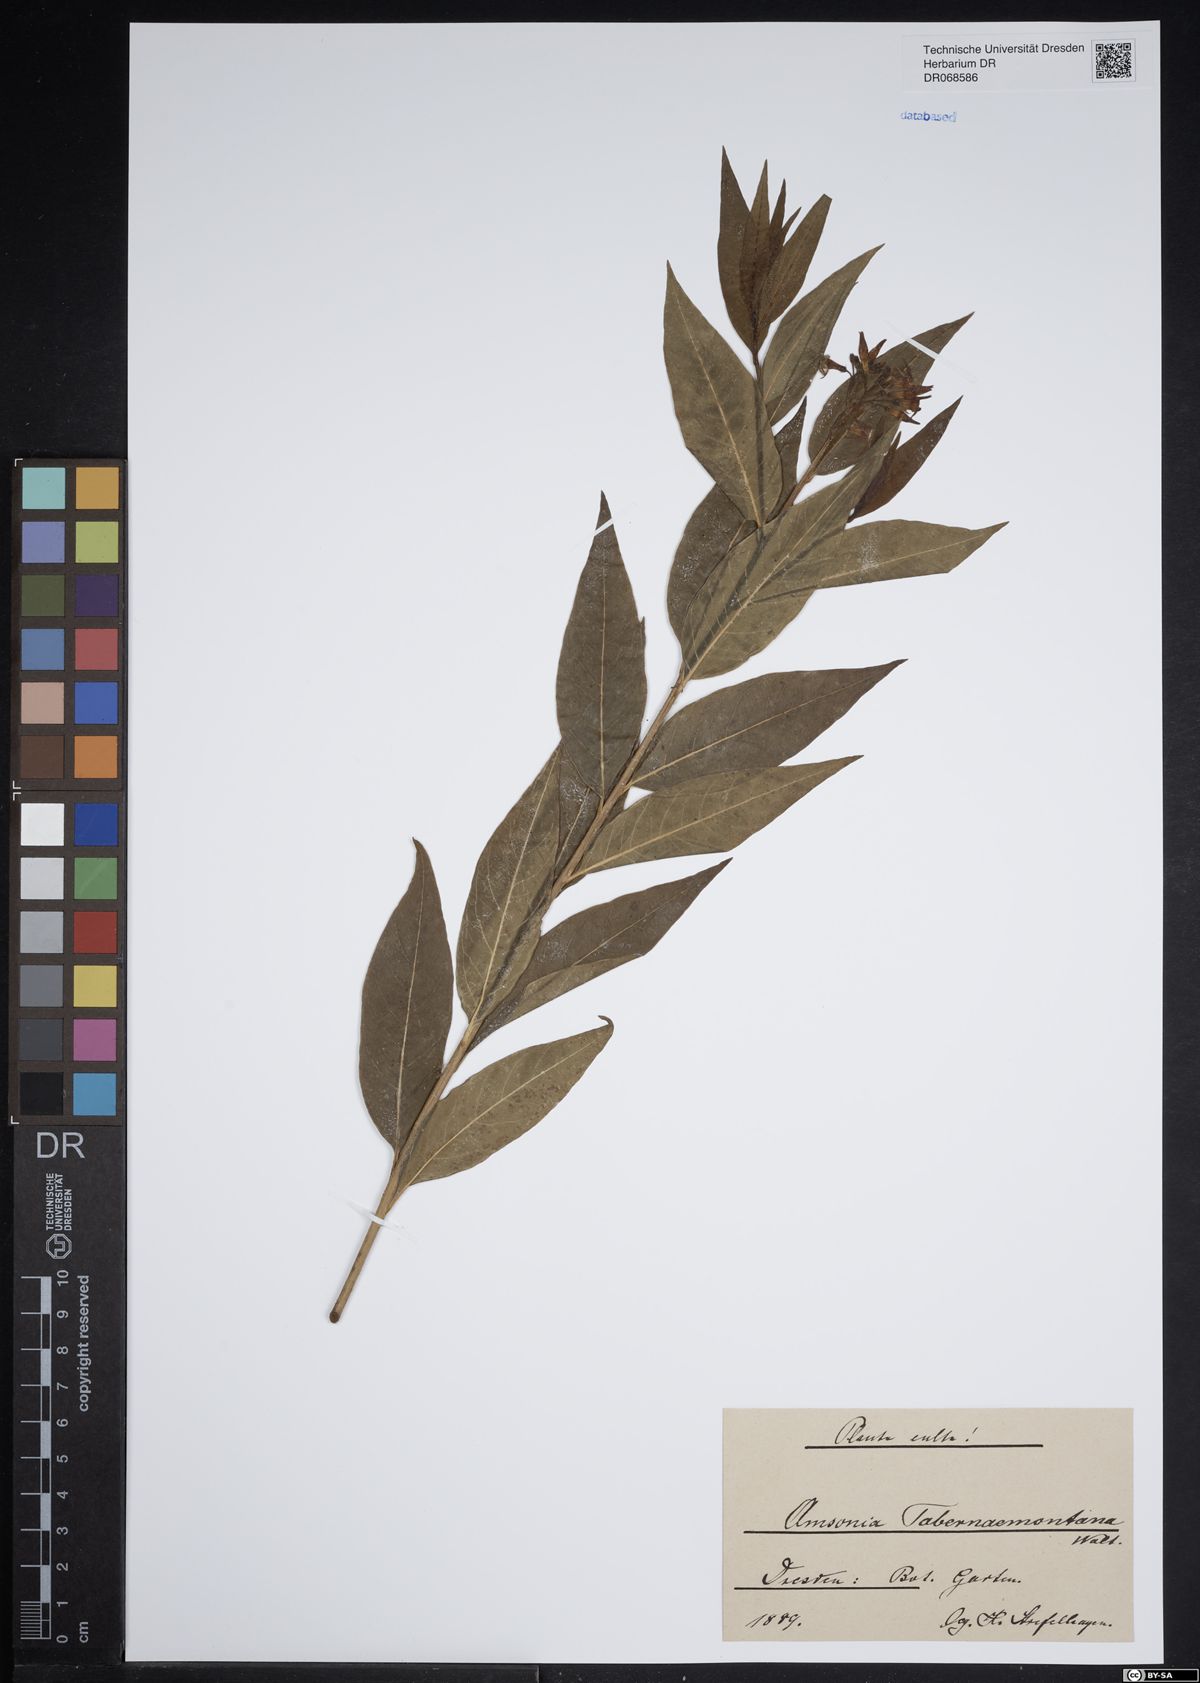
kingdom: Plantae
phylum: Tracheophyta
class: Magnoliopsida
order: Gentianales
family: Apocynaceae
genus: Amsonia
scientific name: Amsonia tabernaemontana
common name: Texas-star
